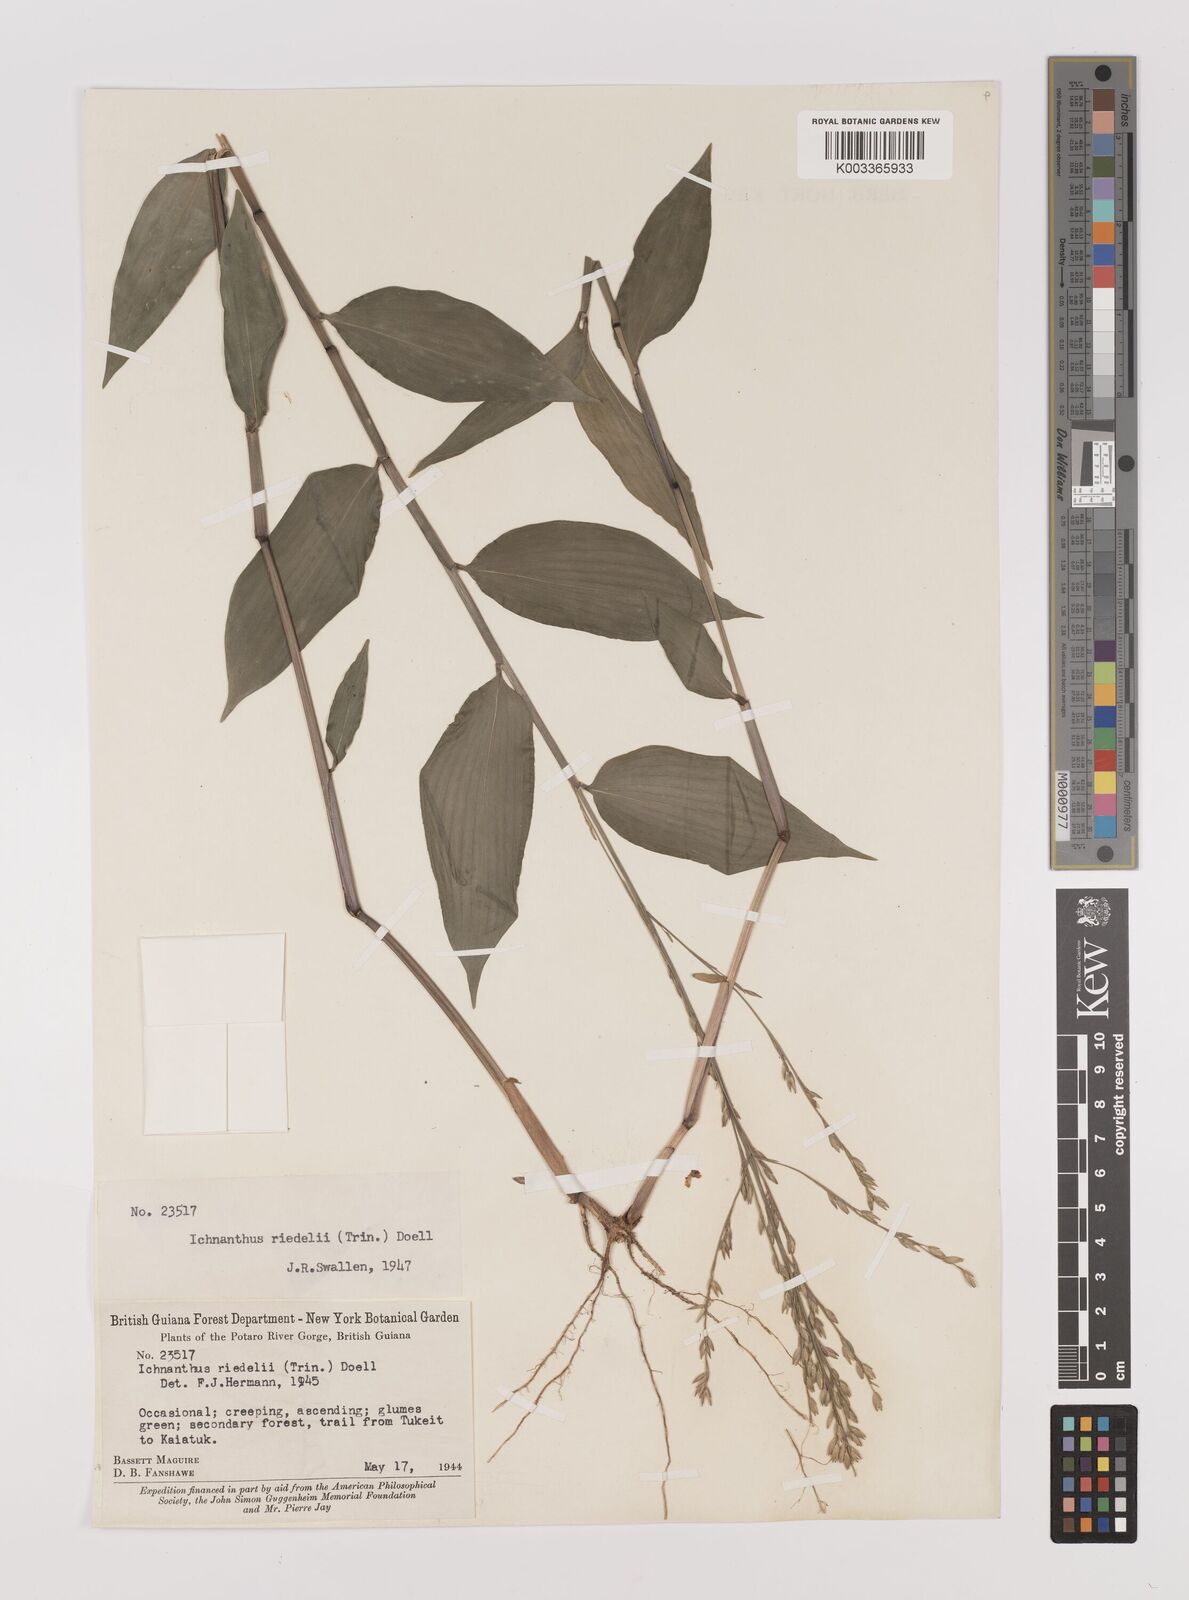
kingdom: Plantae
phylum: Tracheophyta
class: Liliopsida
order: Poales
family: Poaceae
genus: Ichnanthus
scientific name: Ichnanthus nemoralis
